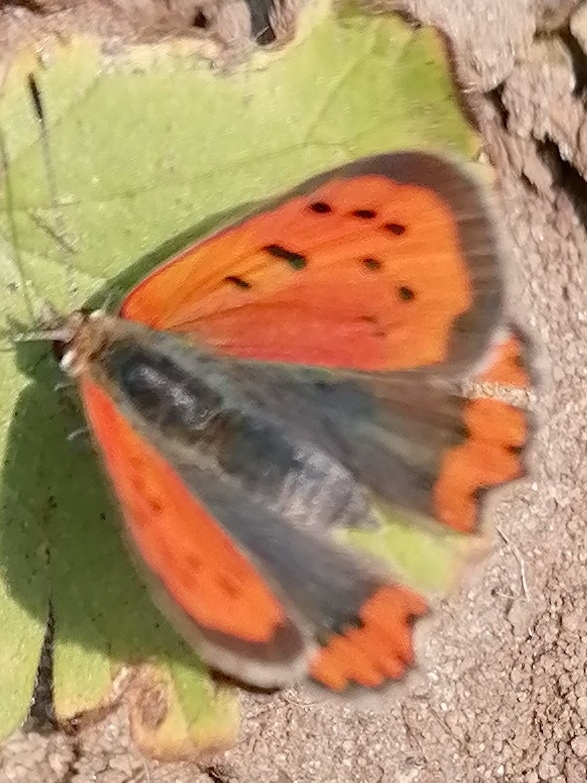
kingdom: Animalia
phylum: Arthropoda
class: Insecta
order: Lepidoptera
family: Lycaenidae
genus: Lycaena
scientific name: Lycaena phlaeas
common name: Lille ildfugl
